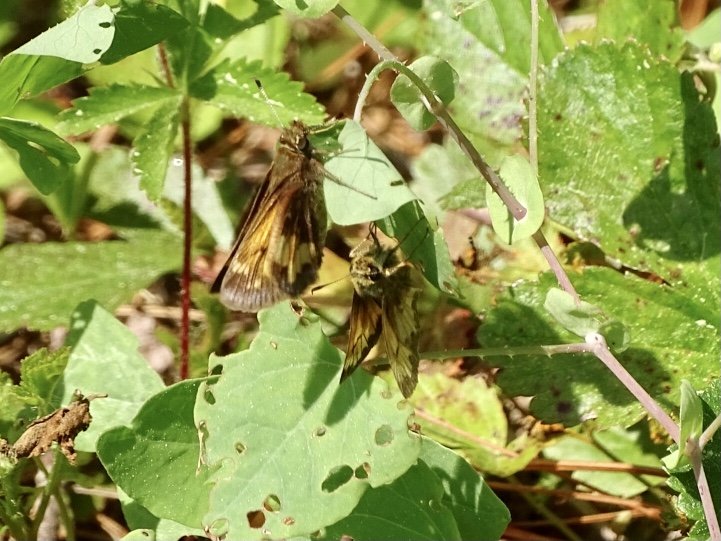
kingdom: Animalia
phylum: Arthropoda
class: Insecta
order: Lepidoptera
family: Hesperiidae
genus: Lon
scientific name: Lon hobomok
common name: Hobomok Skipper
